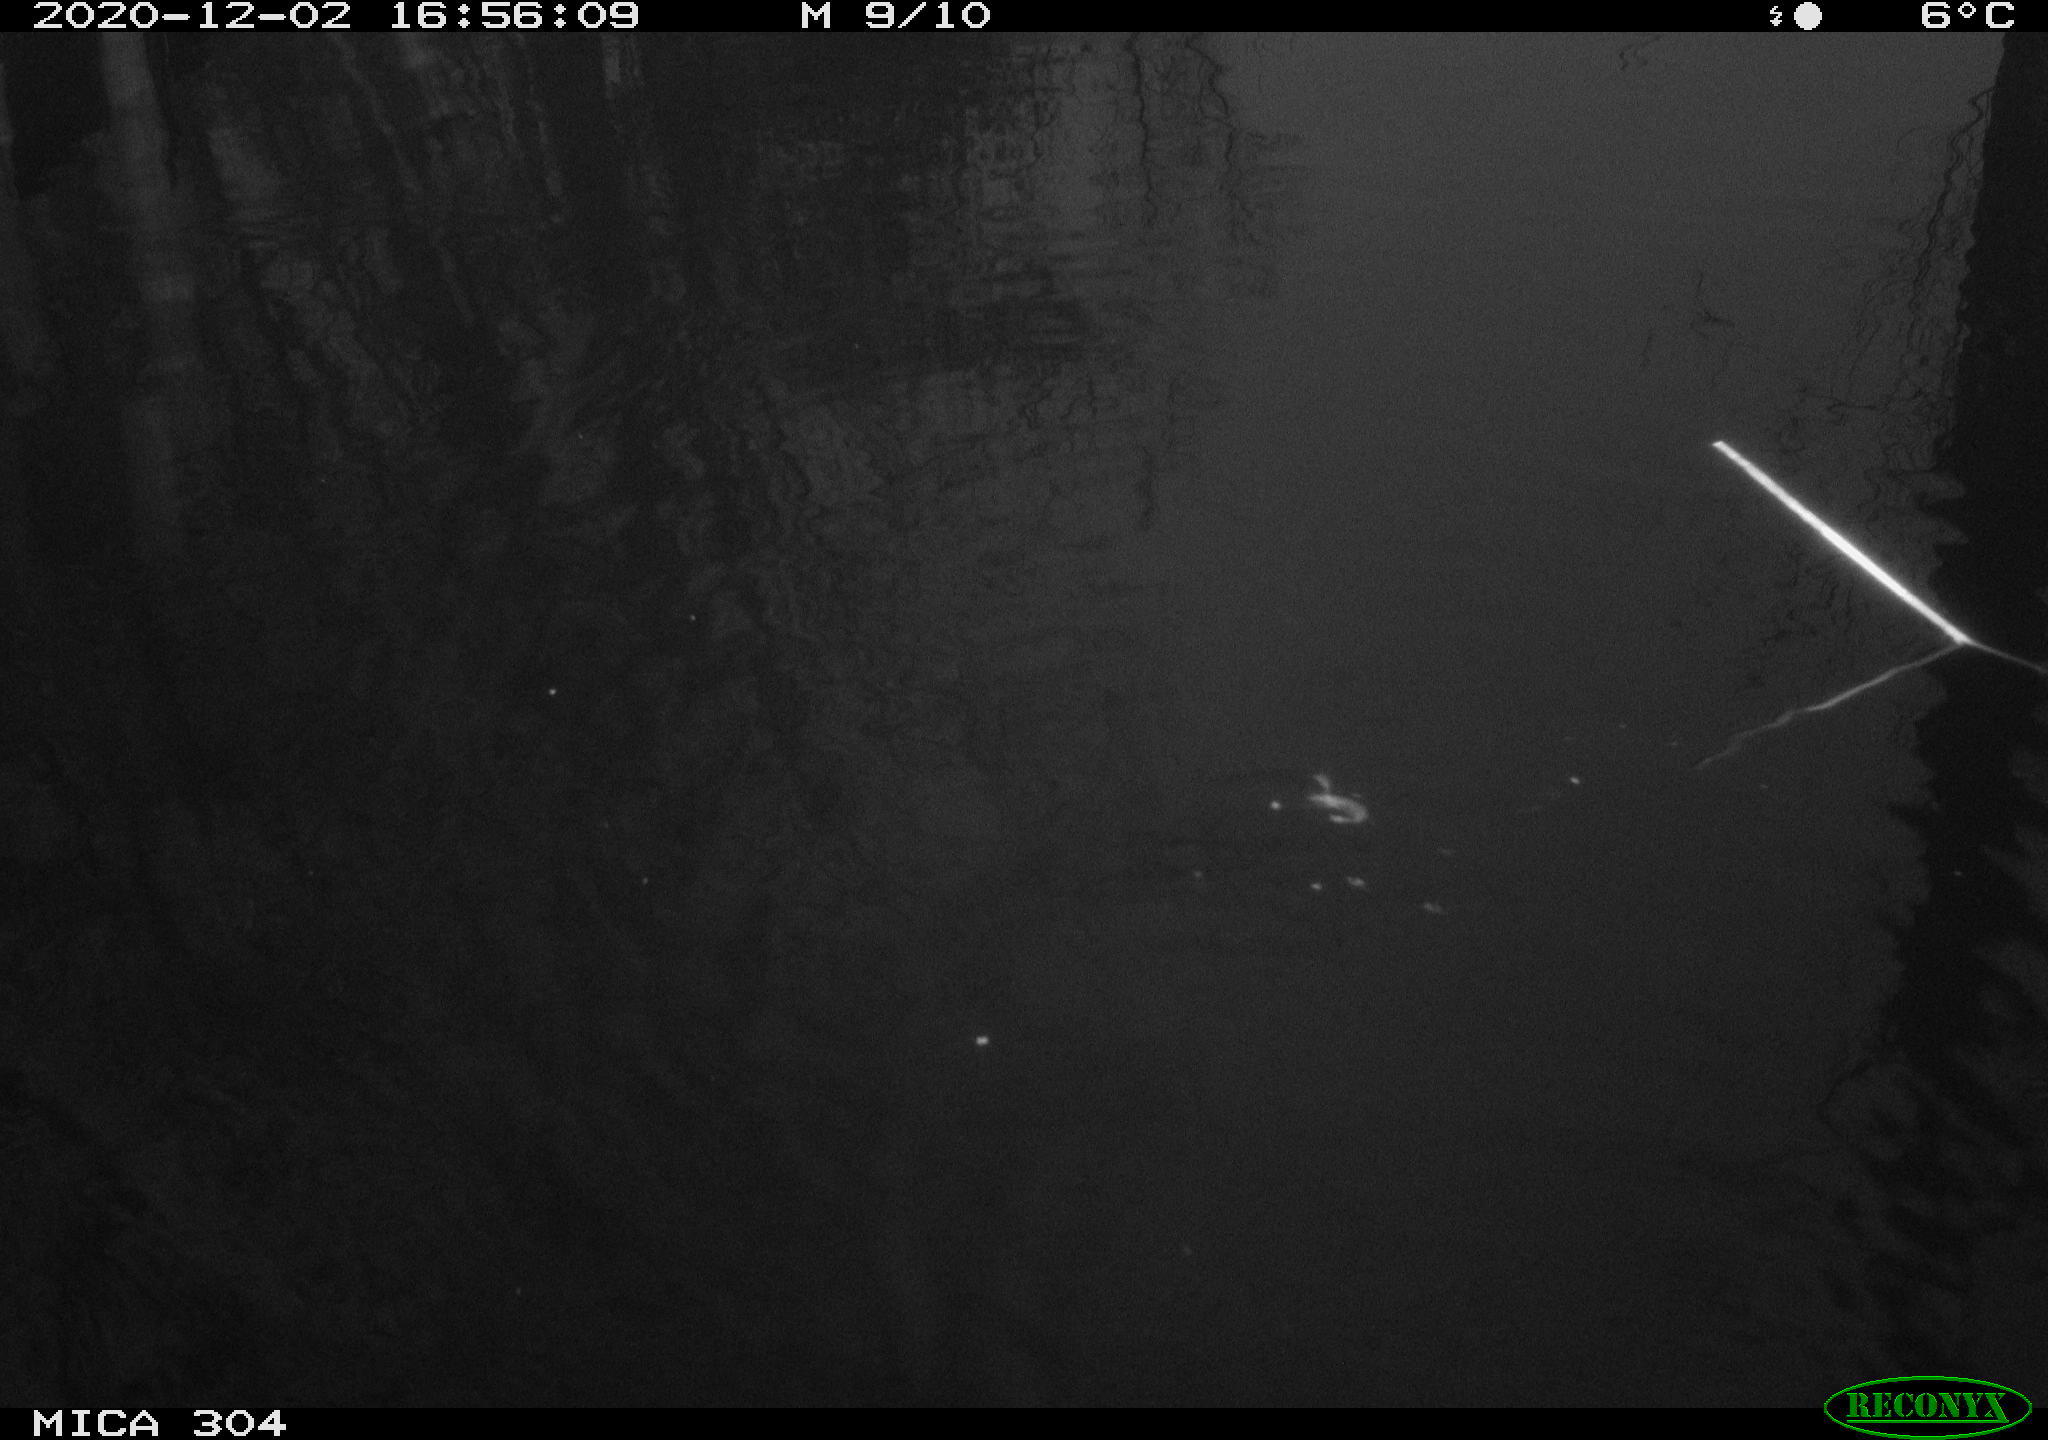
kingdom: Animalia
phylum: Chordata
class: Aves
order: Gruiformes
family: Rallidae
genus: Gallinula
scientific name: Gallinula chloropus
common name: Common moorhen
